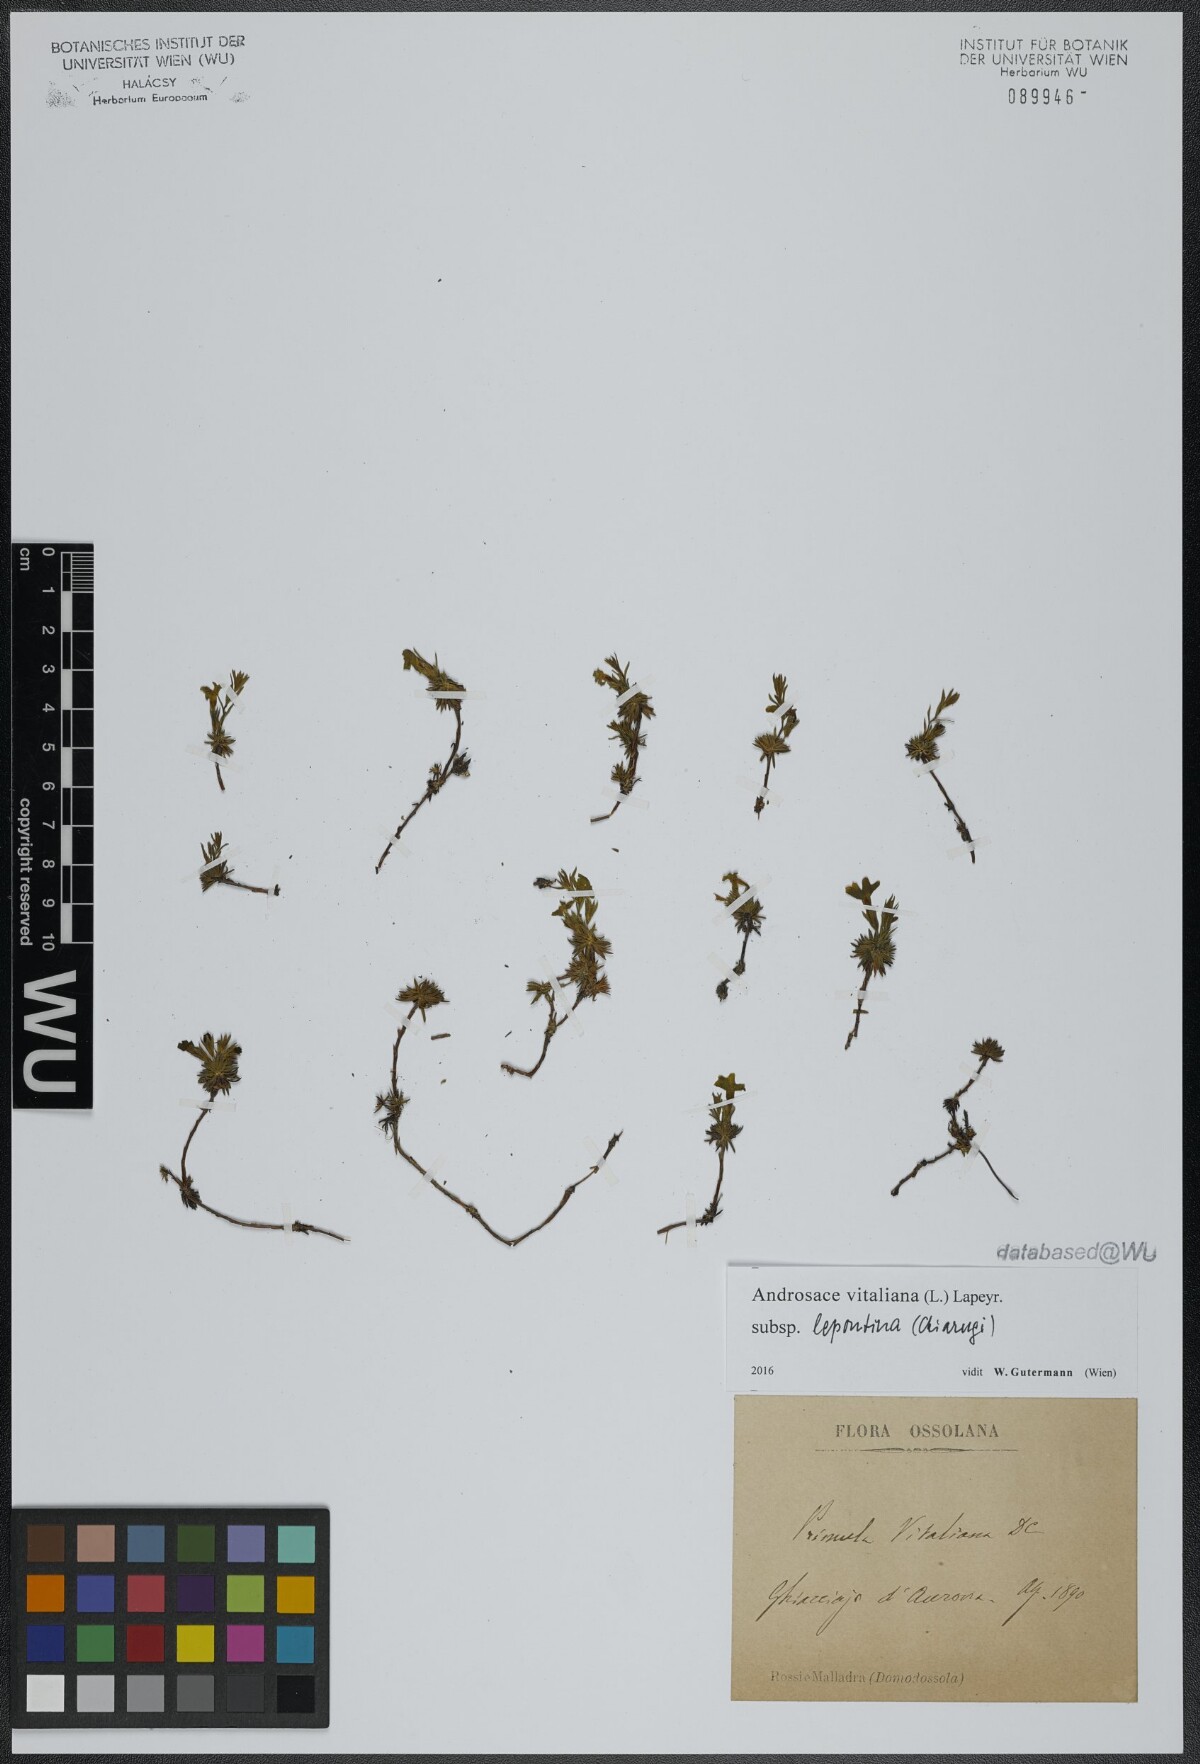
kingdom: Plantae
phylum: Tracheophyta
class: Magnoliopsida
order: Ericales
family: Primulaceae
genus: Androsace
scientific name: Androsace vitaliana
